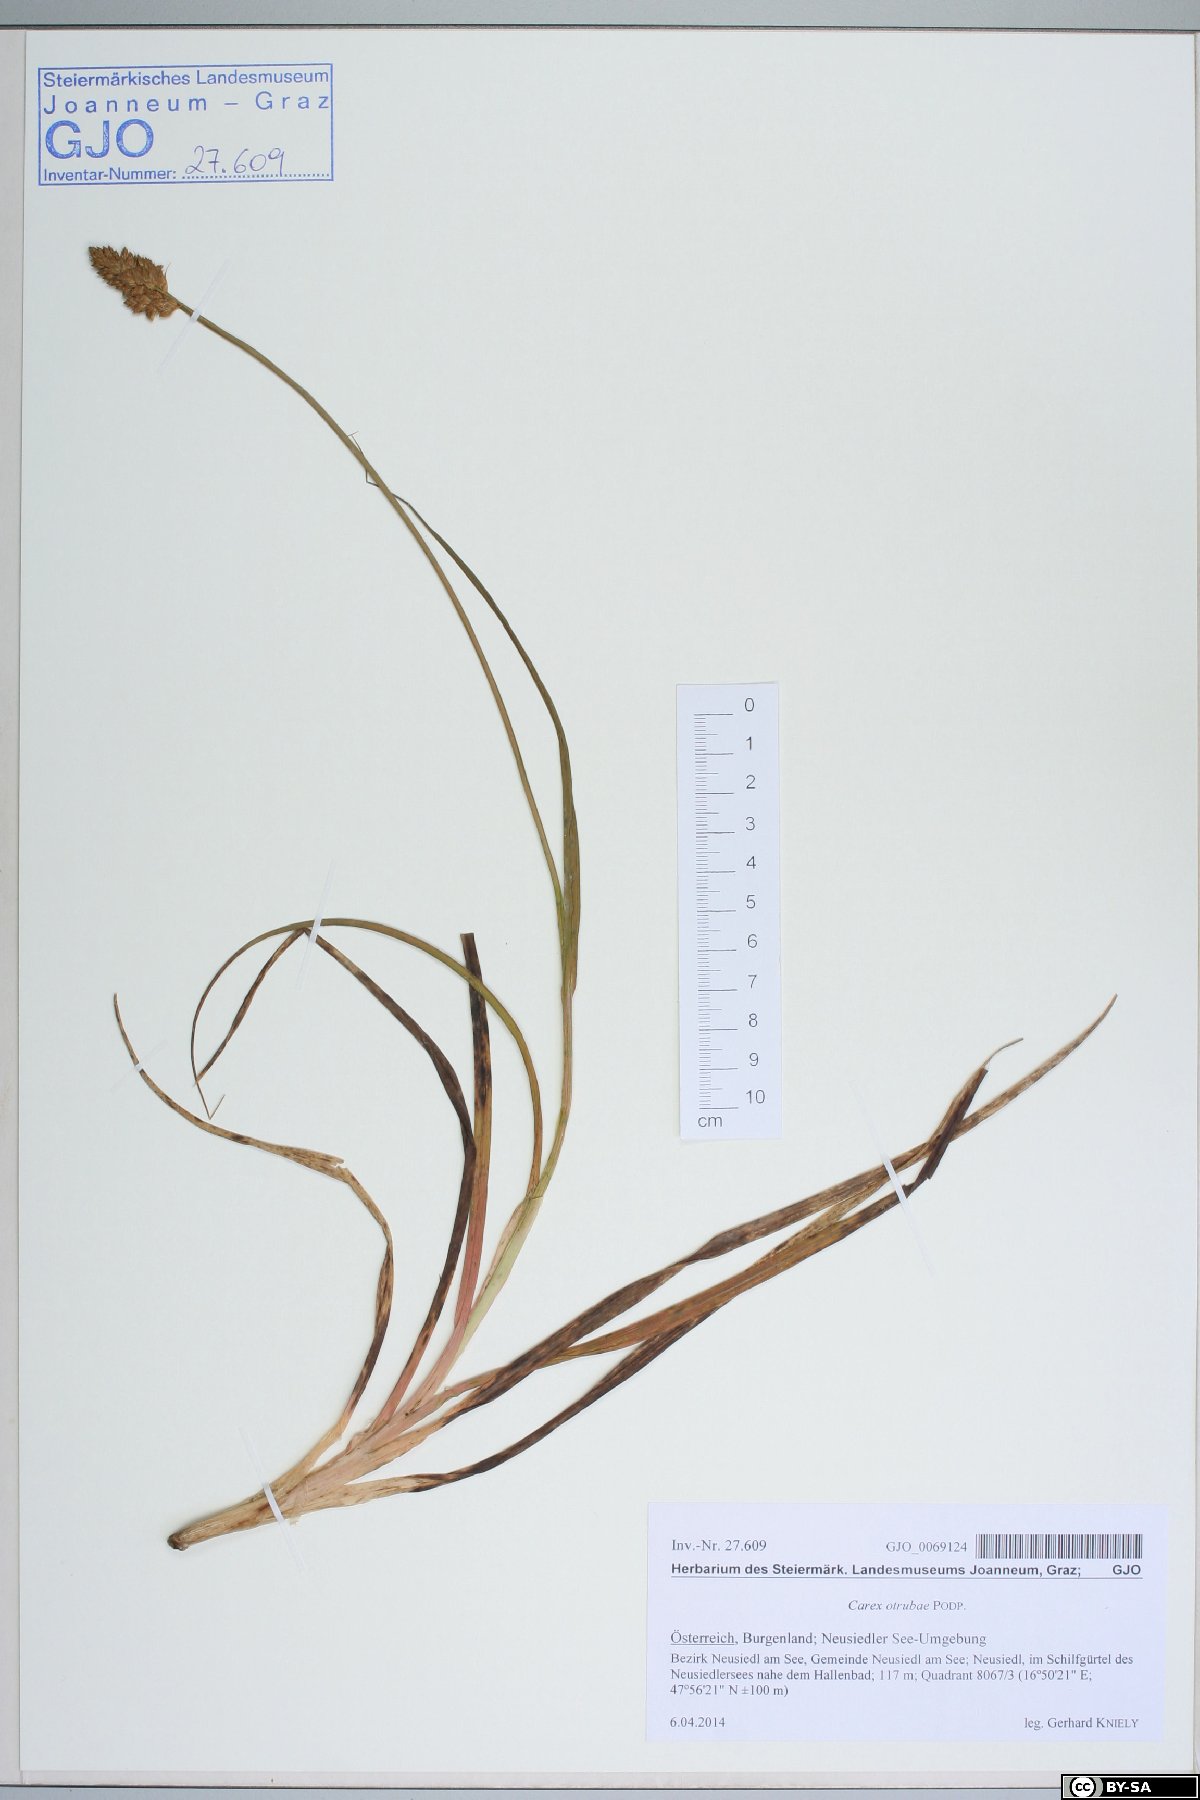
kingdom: Plantae
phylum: Tracheophyta
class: Liliopsida
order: Poales
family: Cyperaceae
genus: Carex
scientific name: Carex otrubae
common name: False fox-sedge
